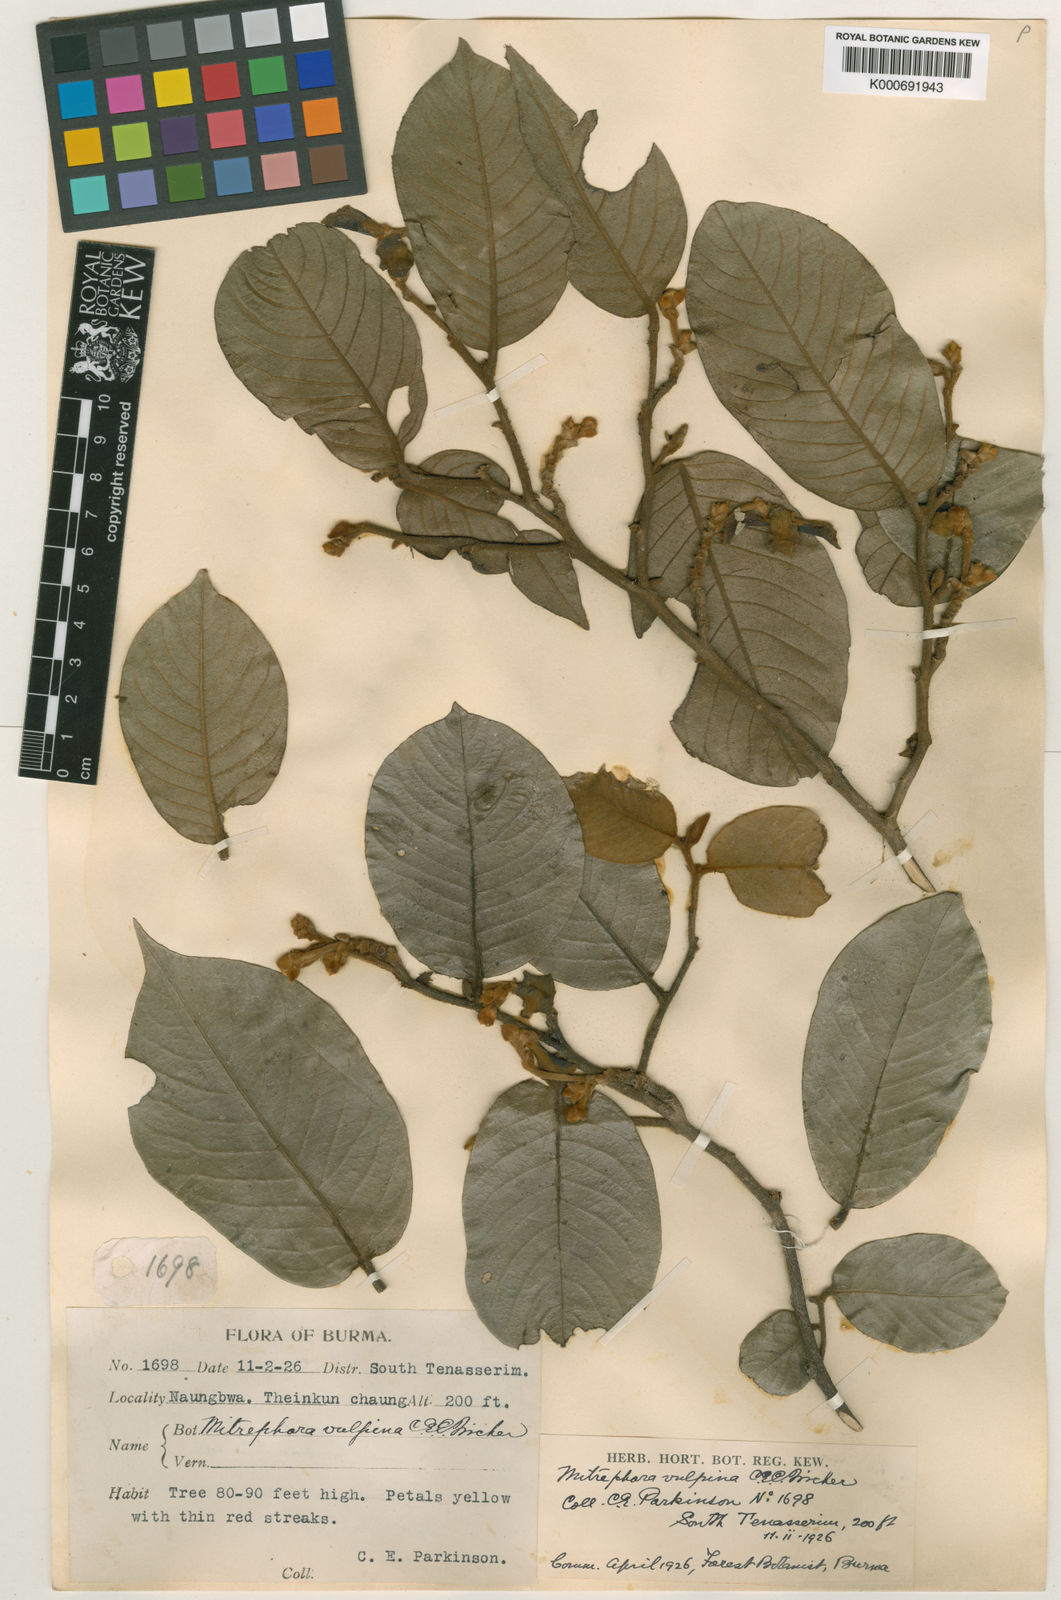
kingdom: Plantae
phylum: Tracheophyta
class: Magnoliopsida
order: Magnoliales
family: Annonaceae
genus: Mitrephora
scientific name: Mitrephora vulpina
